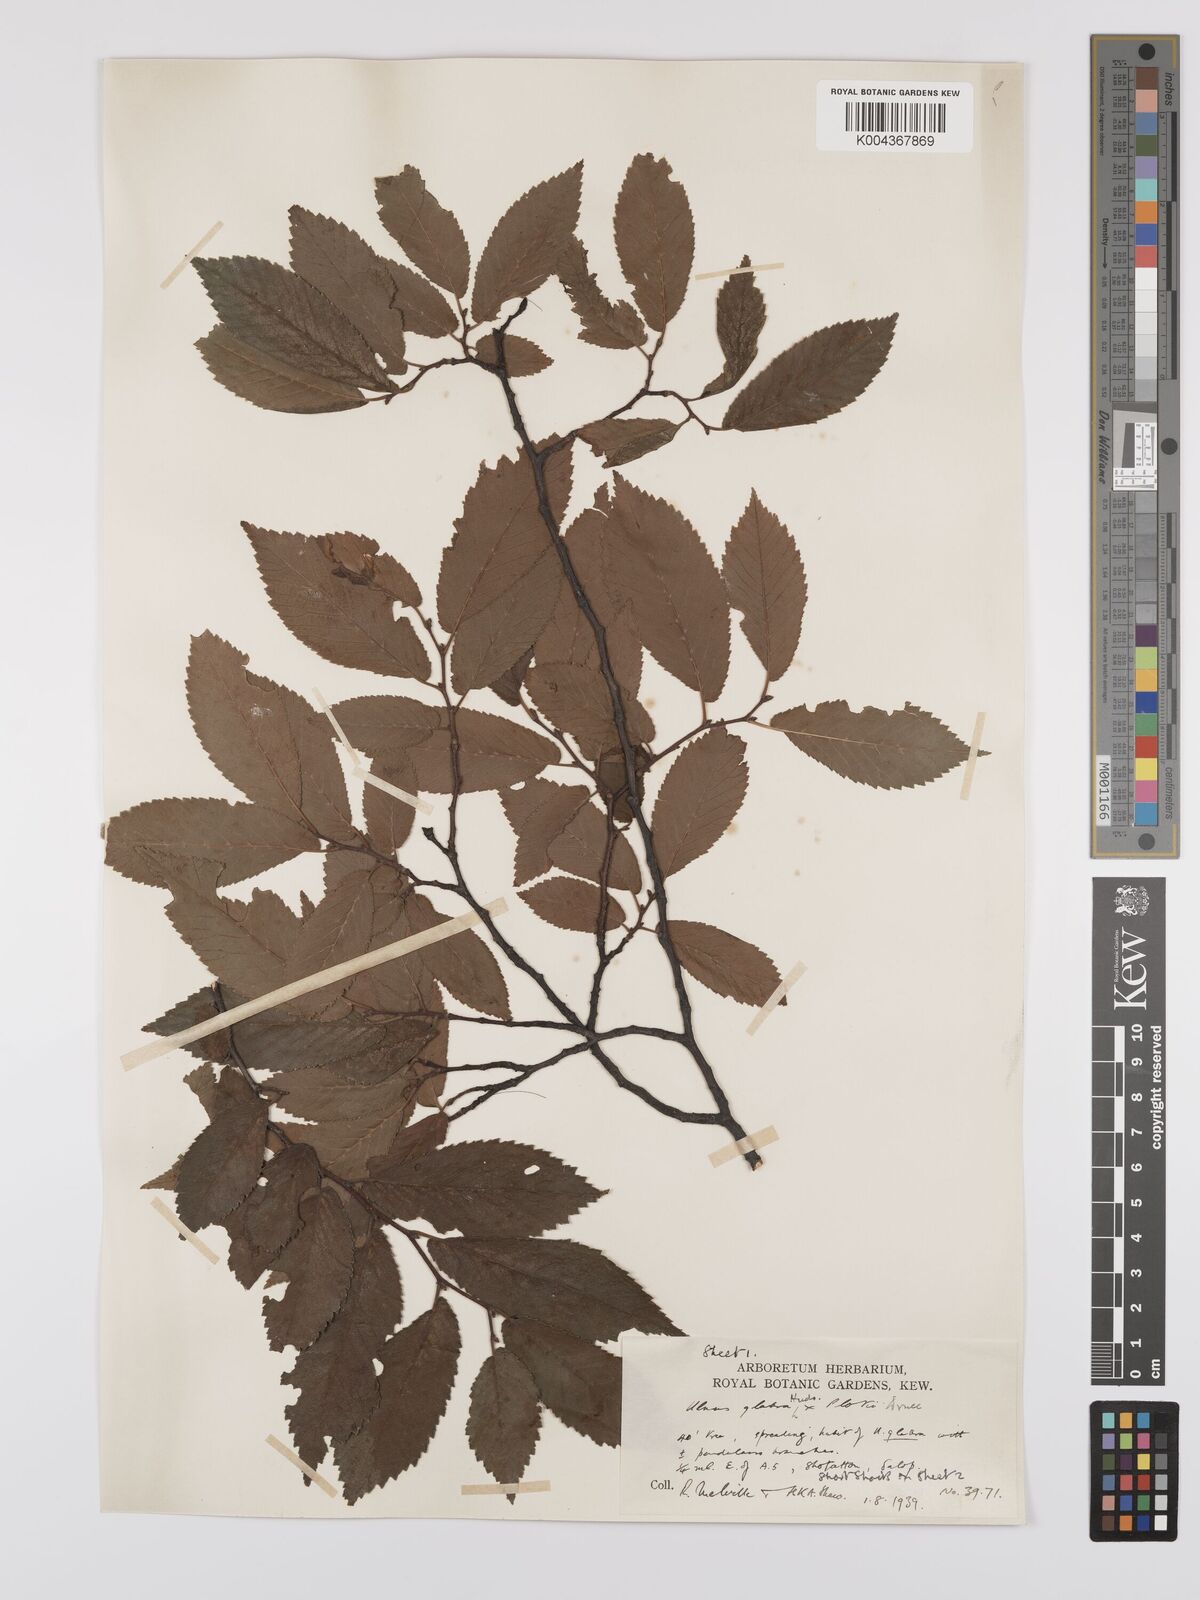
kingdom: Plantae
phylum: Tracheophyta
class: Magnoliopsida
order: Rosales
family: Ulmaceae
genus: Ulmus
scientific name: Ulmus
